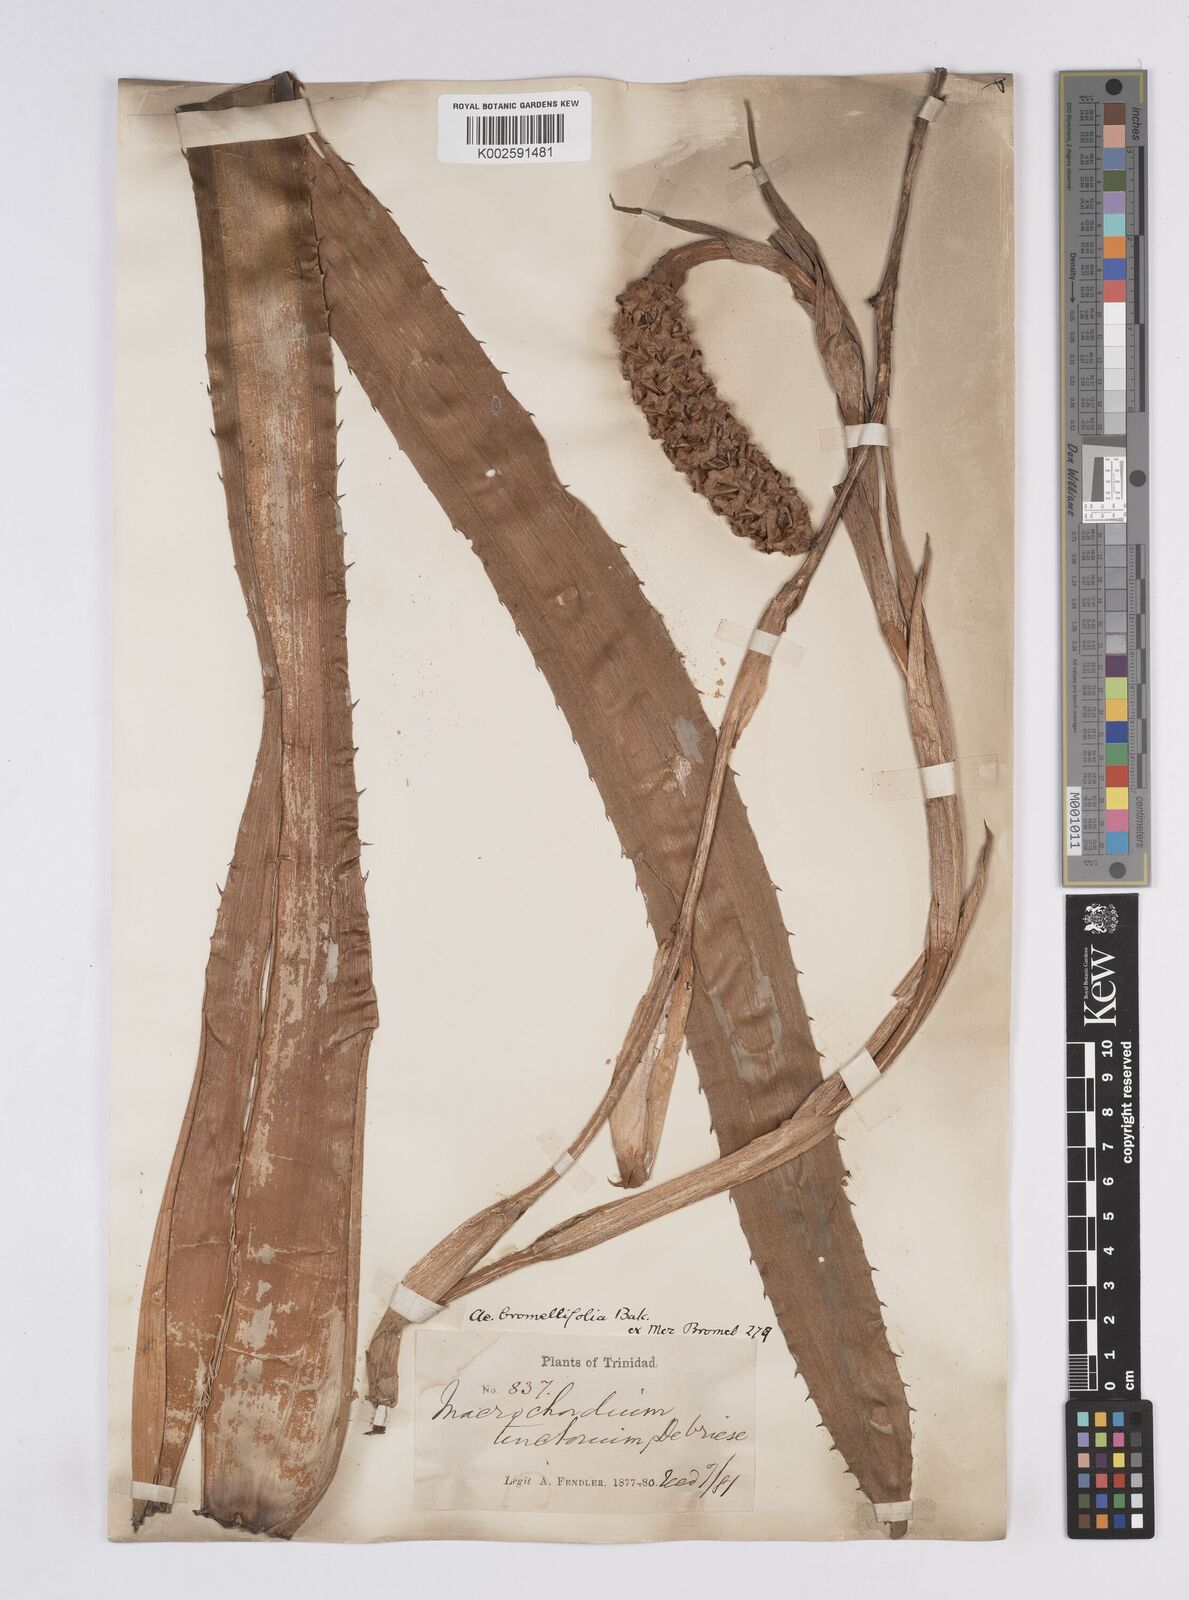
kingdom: Plantae
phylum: Tracheophyta
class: Liliopsida
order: Poales
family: Bromeliaceae
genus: Aechmea
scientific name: Aechmea bromeliifolia
